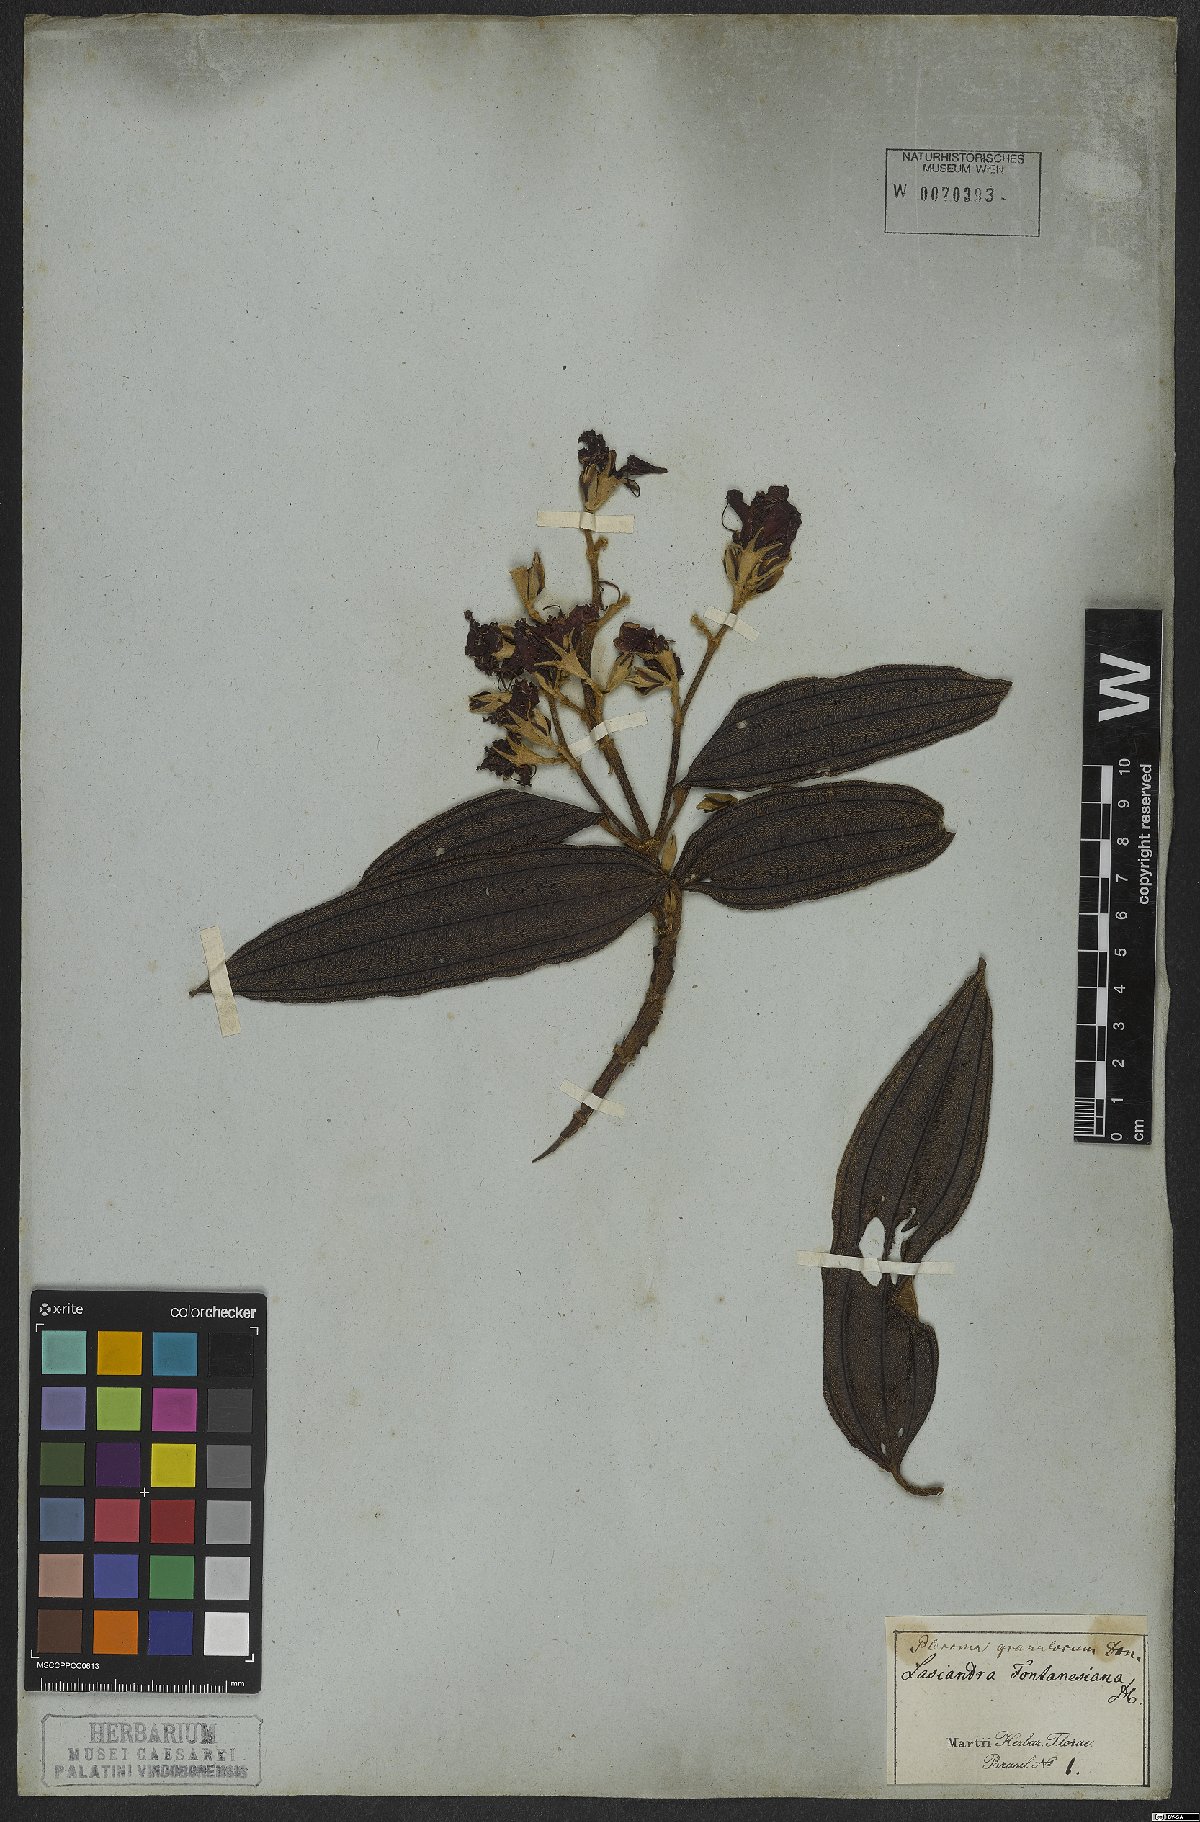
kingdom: Plantae
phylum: Tracheophyta
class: Magnoliopsida
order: Myrtales
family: Melastomataceae
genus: Pleroma
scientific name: Pleroma granulosum
